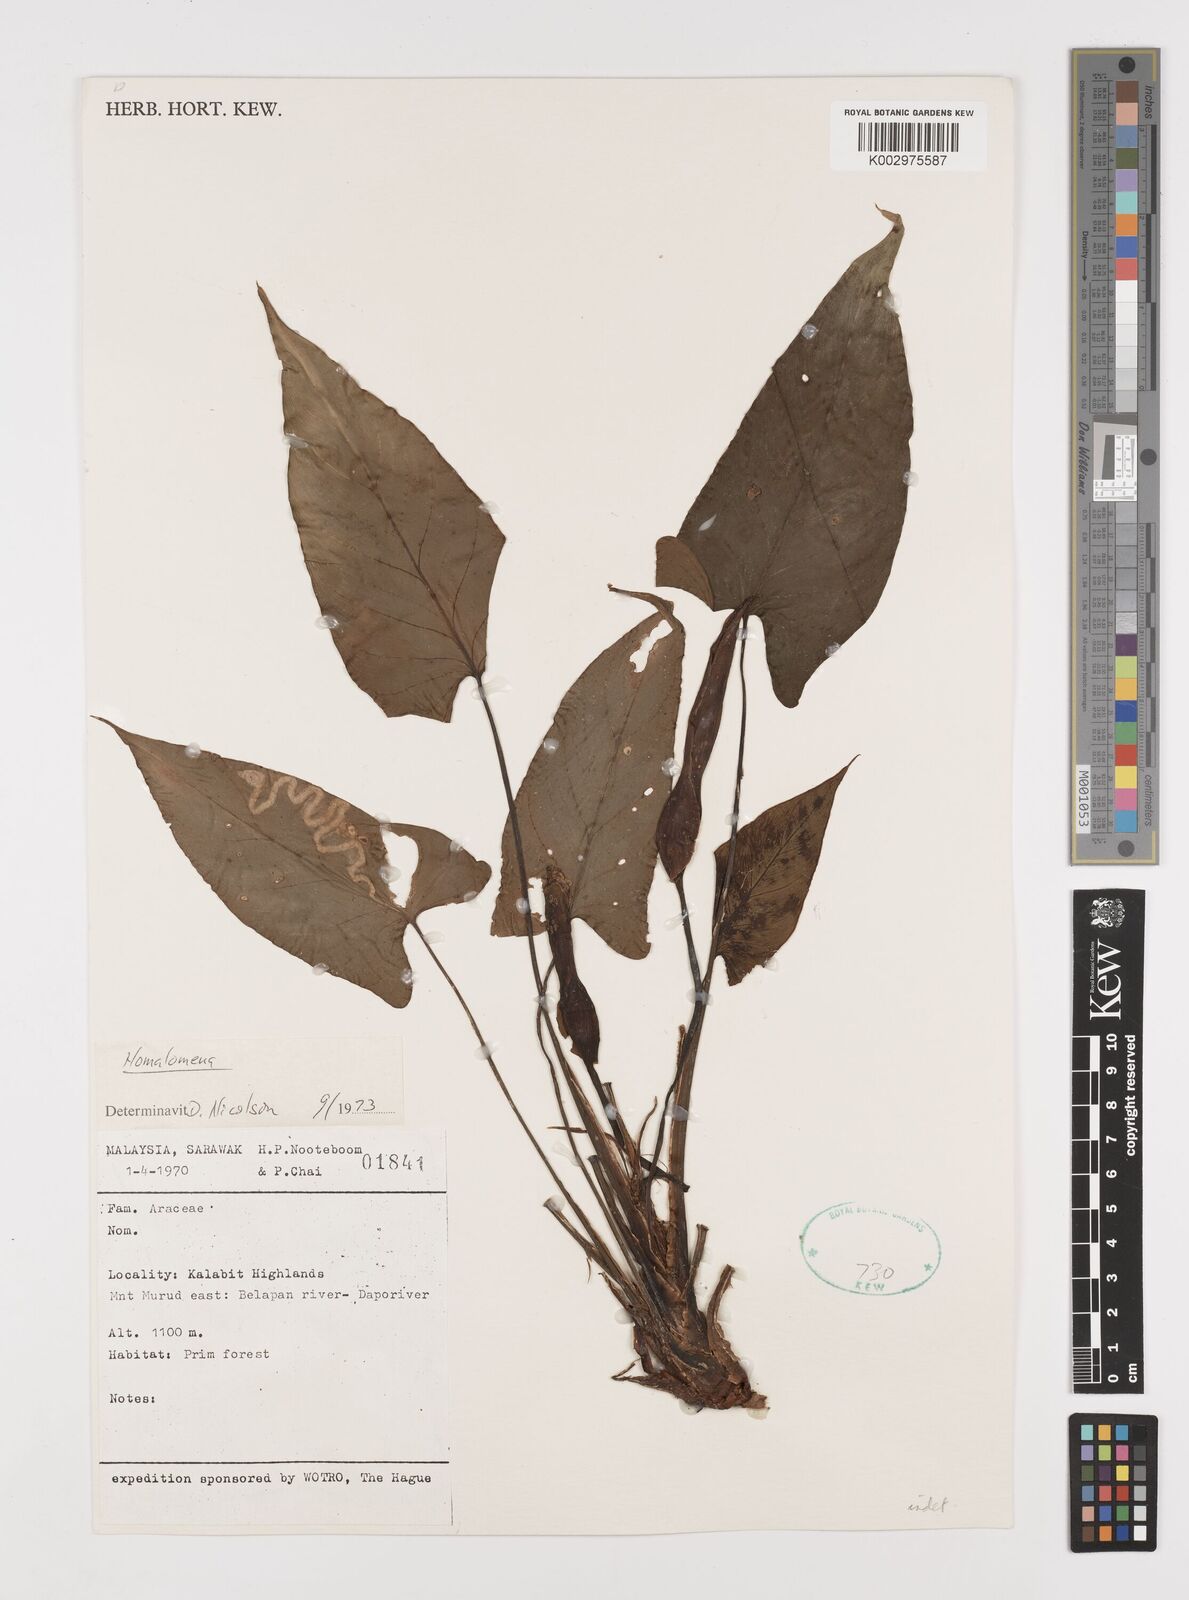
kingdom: Plantae
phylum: Tracheophyta
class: Liliopsida
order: Alismatales
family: Araceae
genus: Homalomena
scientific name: Homalomena
